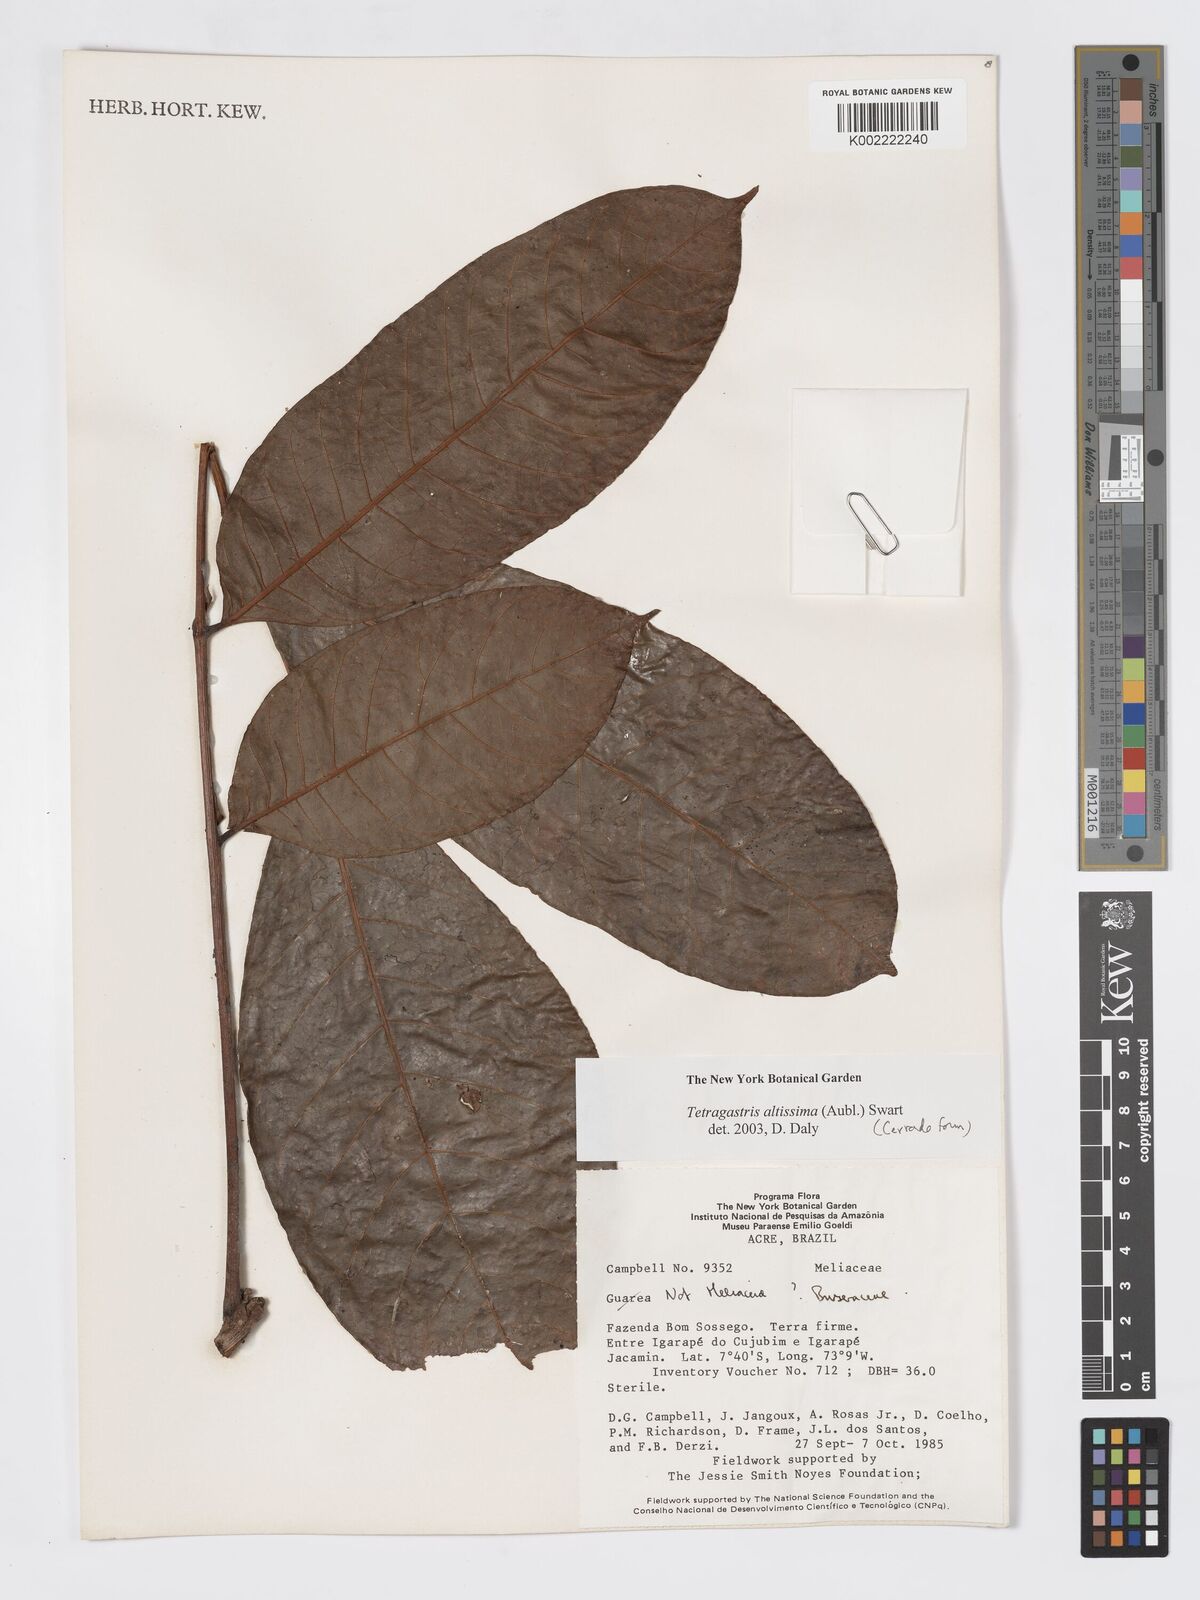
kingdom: Plantae
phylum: Tracheophyta
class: Magnoliopsida
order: Sapindales
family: Burseraceae
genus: Tetragastris
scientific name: Tetragastris altissima
